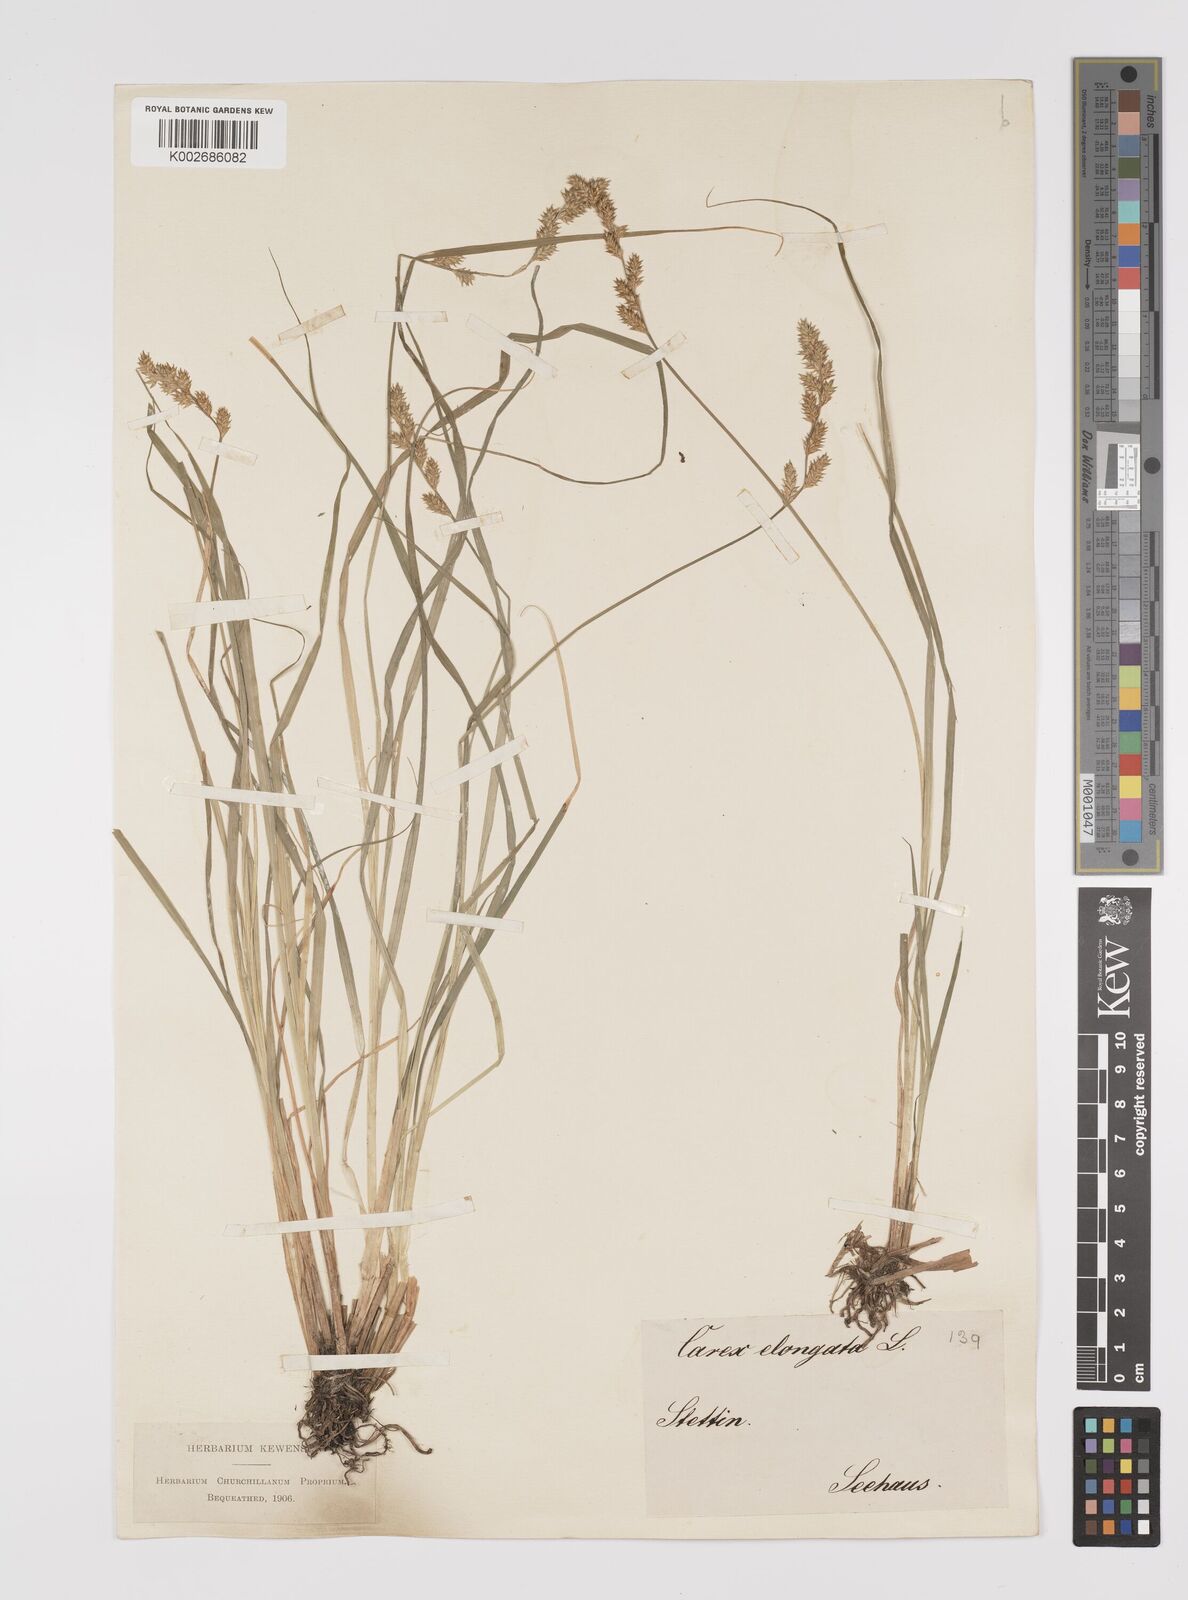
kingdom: Plantae
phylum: Tracheophyta
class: Liliopsida
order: Poales
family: Cyperaceae
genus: Carex
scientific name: Carex elongata
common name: Elongated sedge
